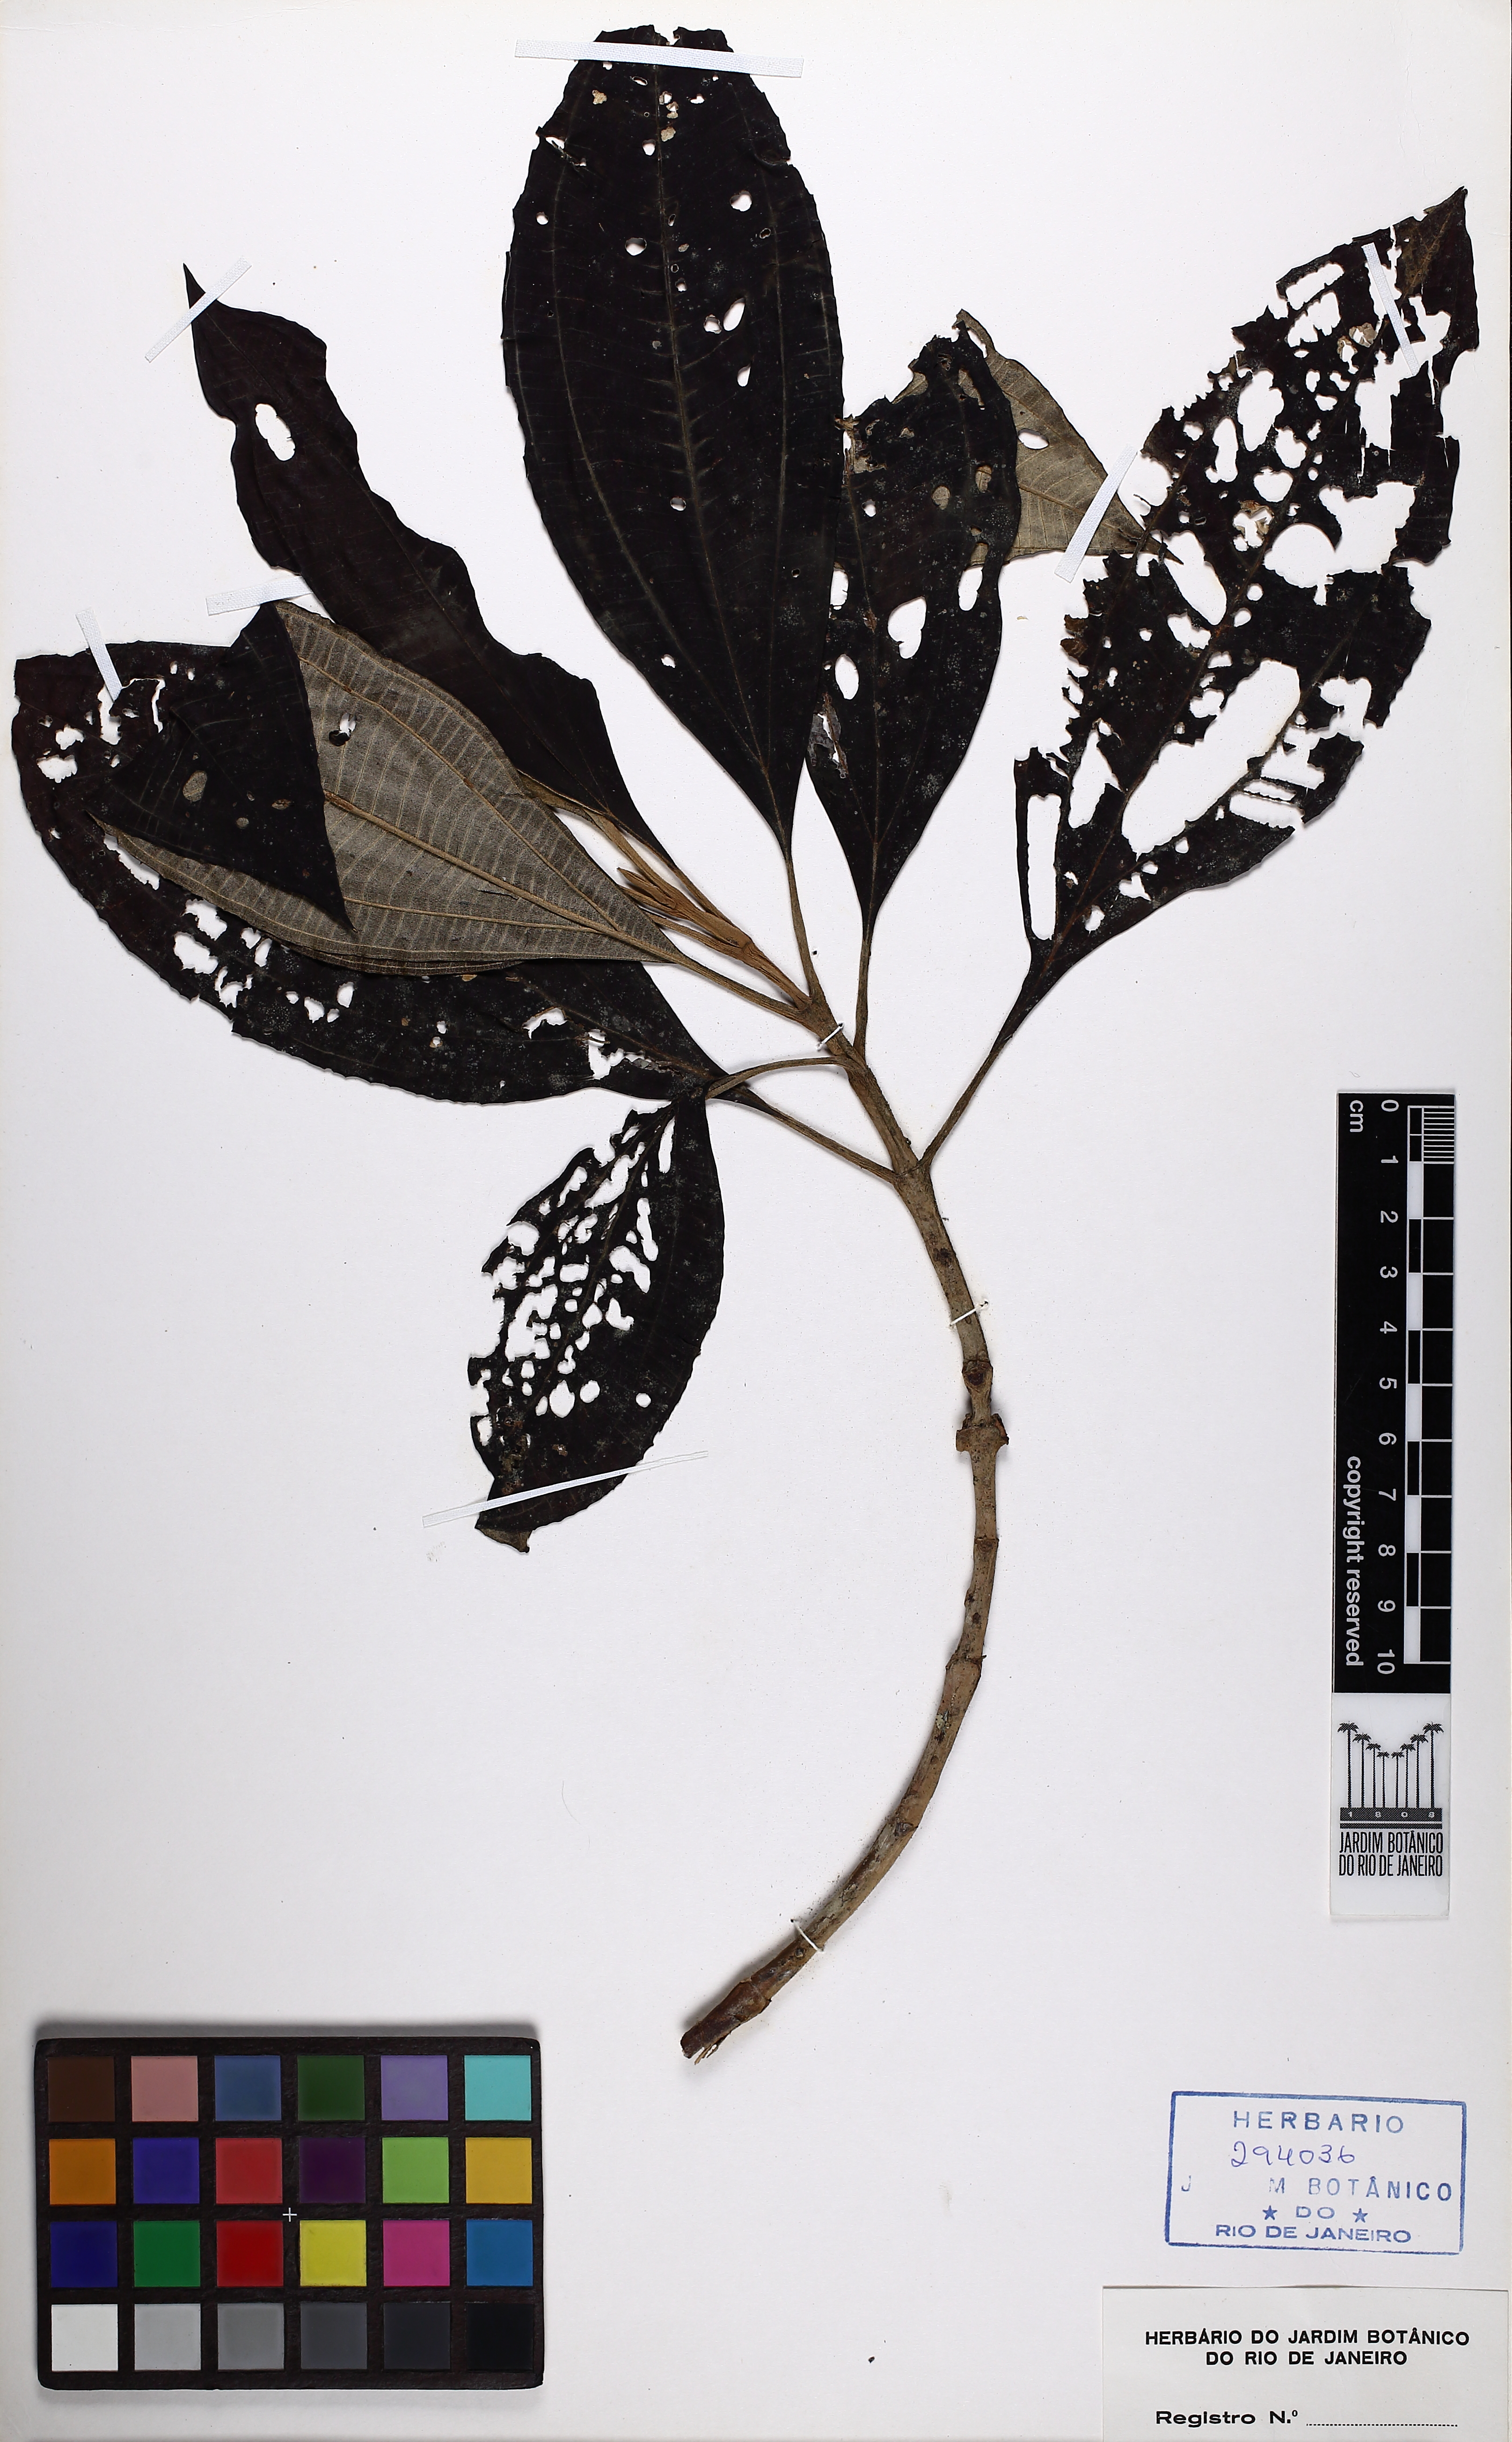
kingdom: Plantae
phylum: Tracheophyta
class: Magnoliopsida
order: Myrtales
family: Melastomataceae
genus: Miconia
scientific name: Miconia discolor
